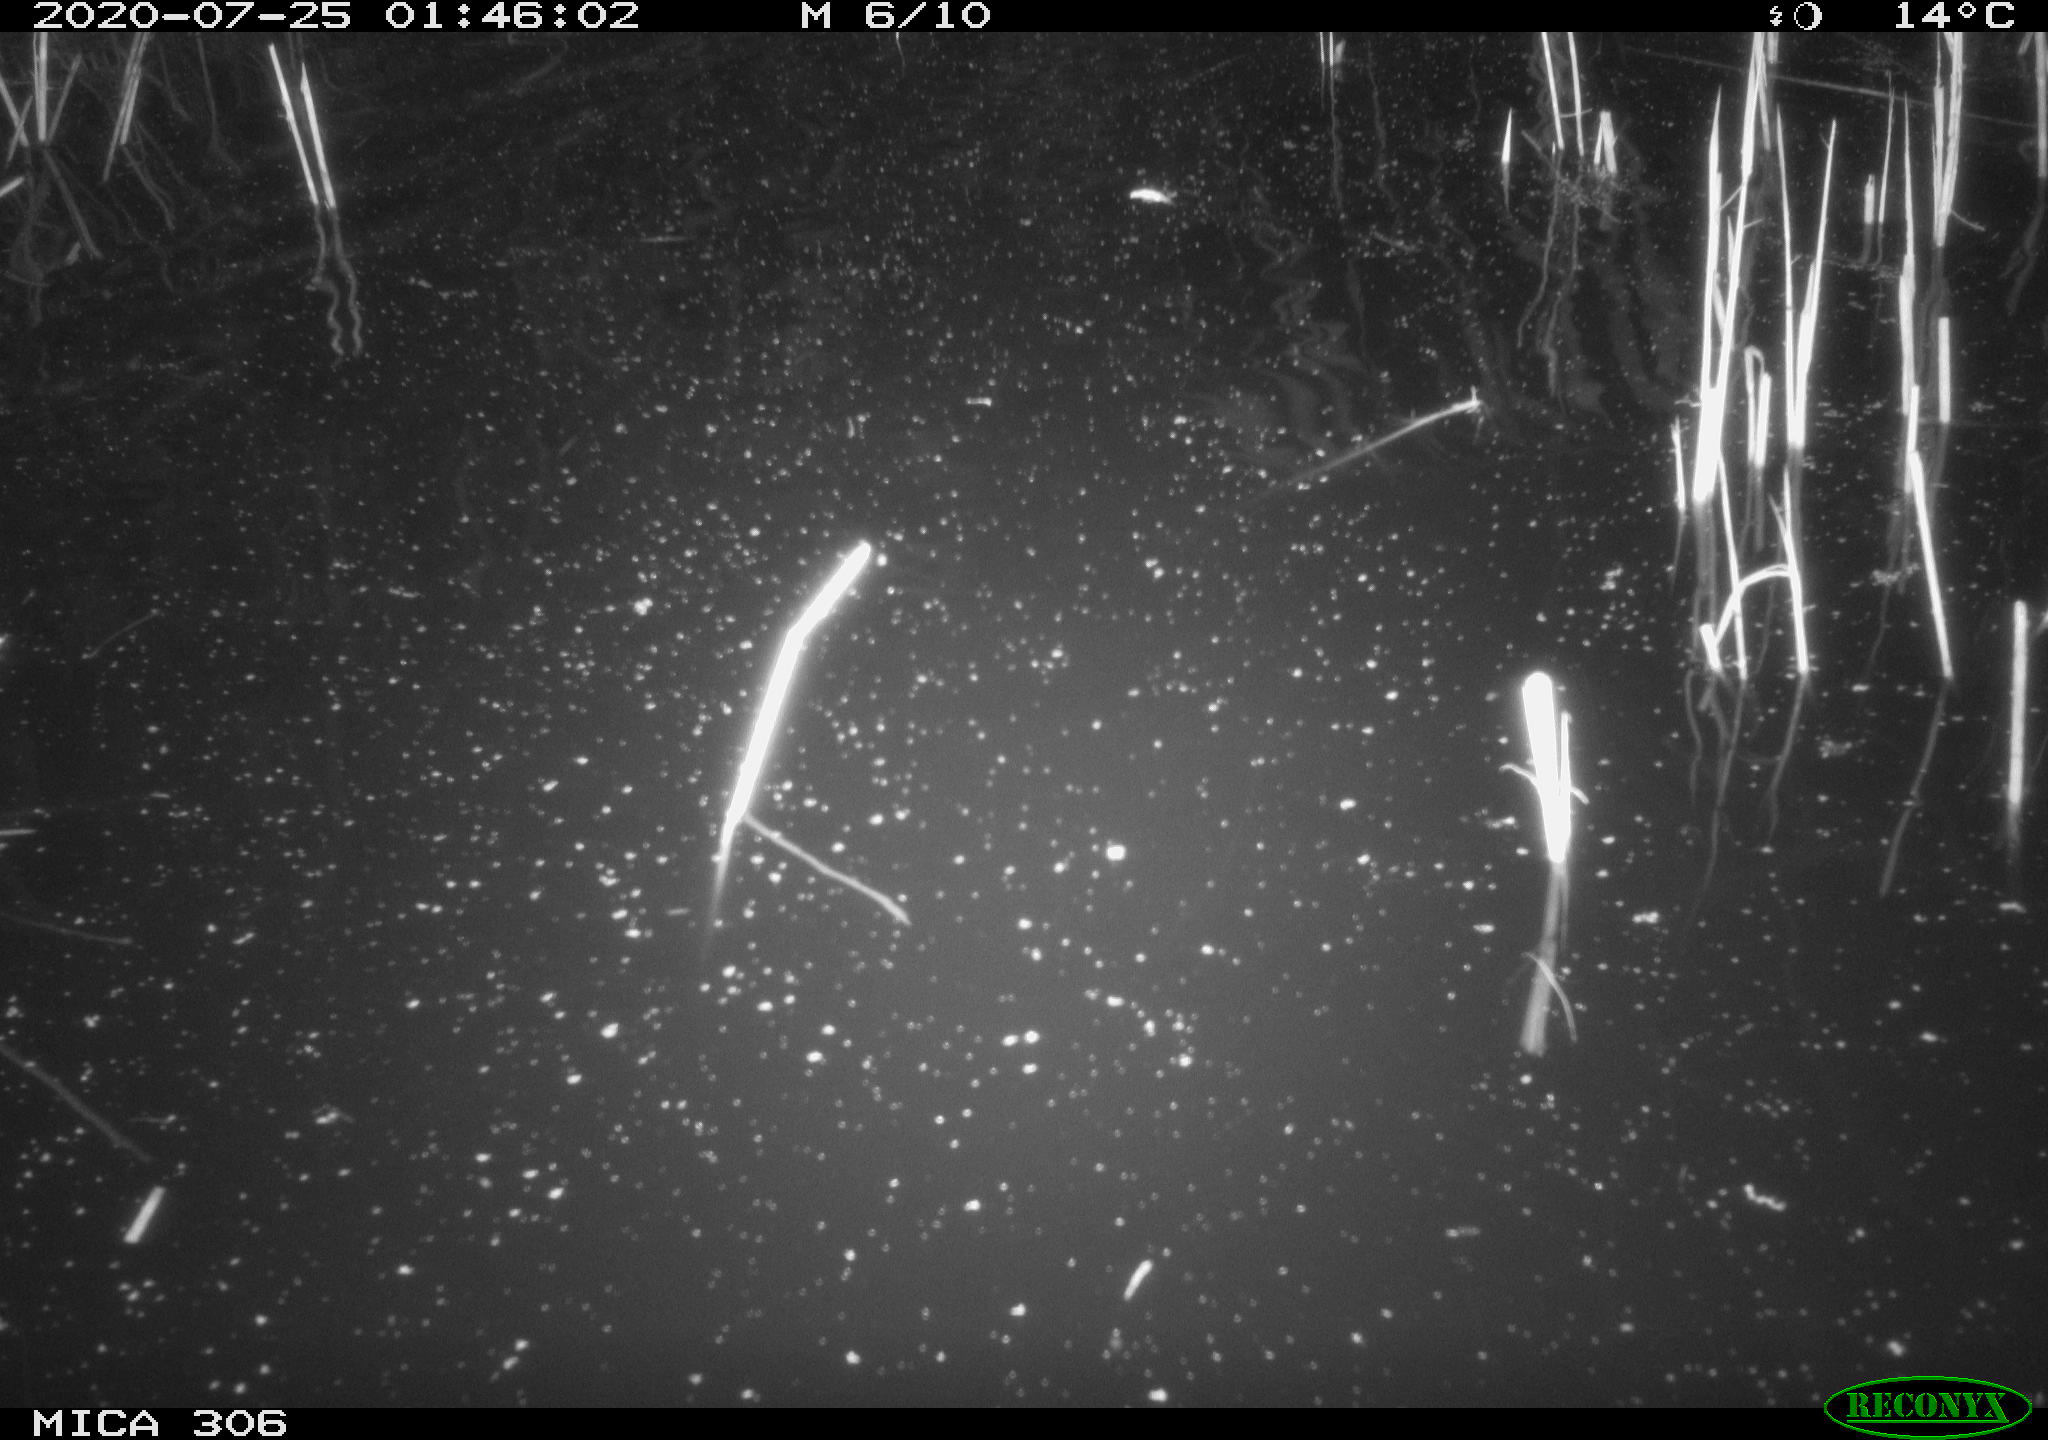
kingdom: Animalia
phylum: Chordata
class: Mammalia
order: Rodentia
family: Cricetidae
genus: Ondatra
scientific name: Ondatra zibethicus
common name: Muskrat
